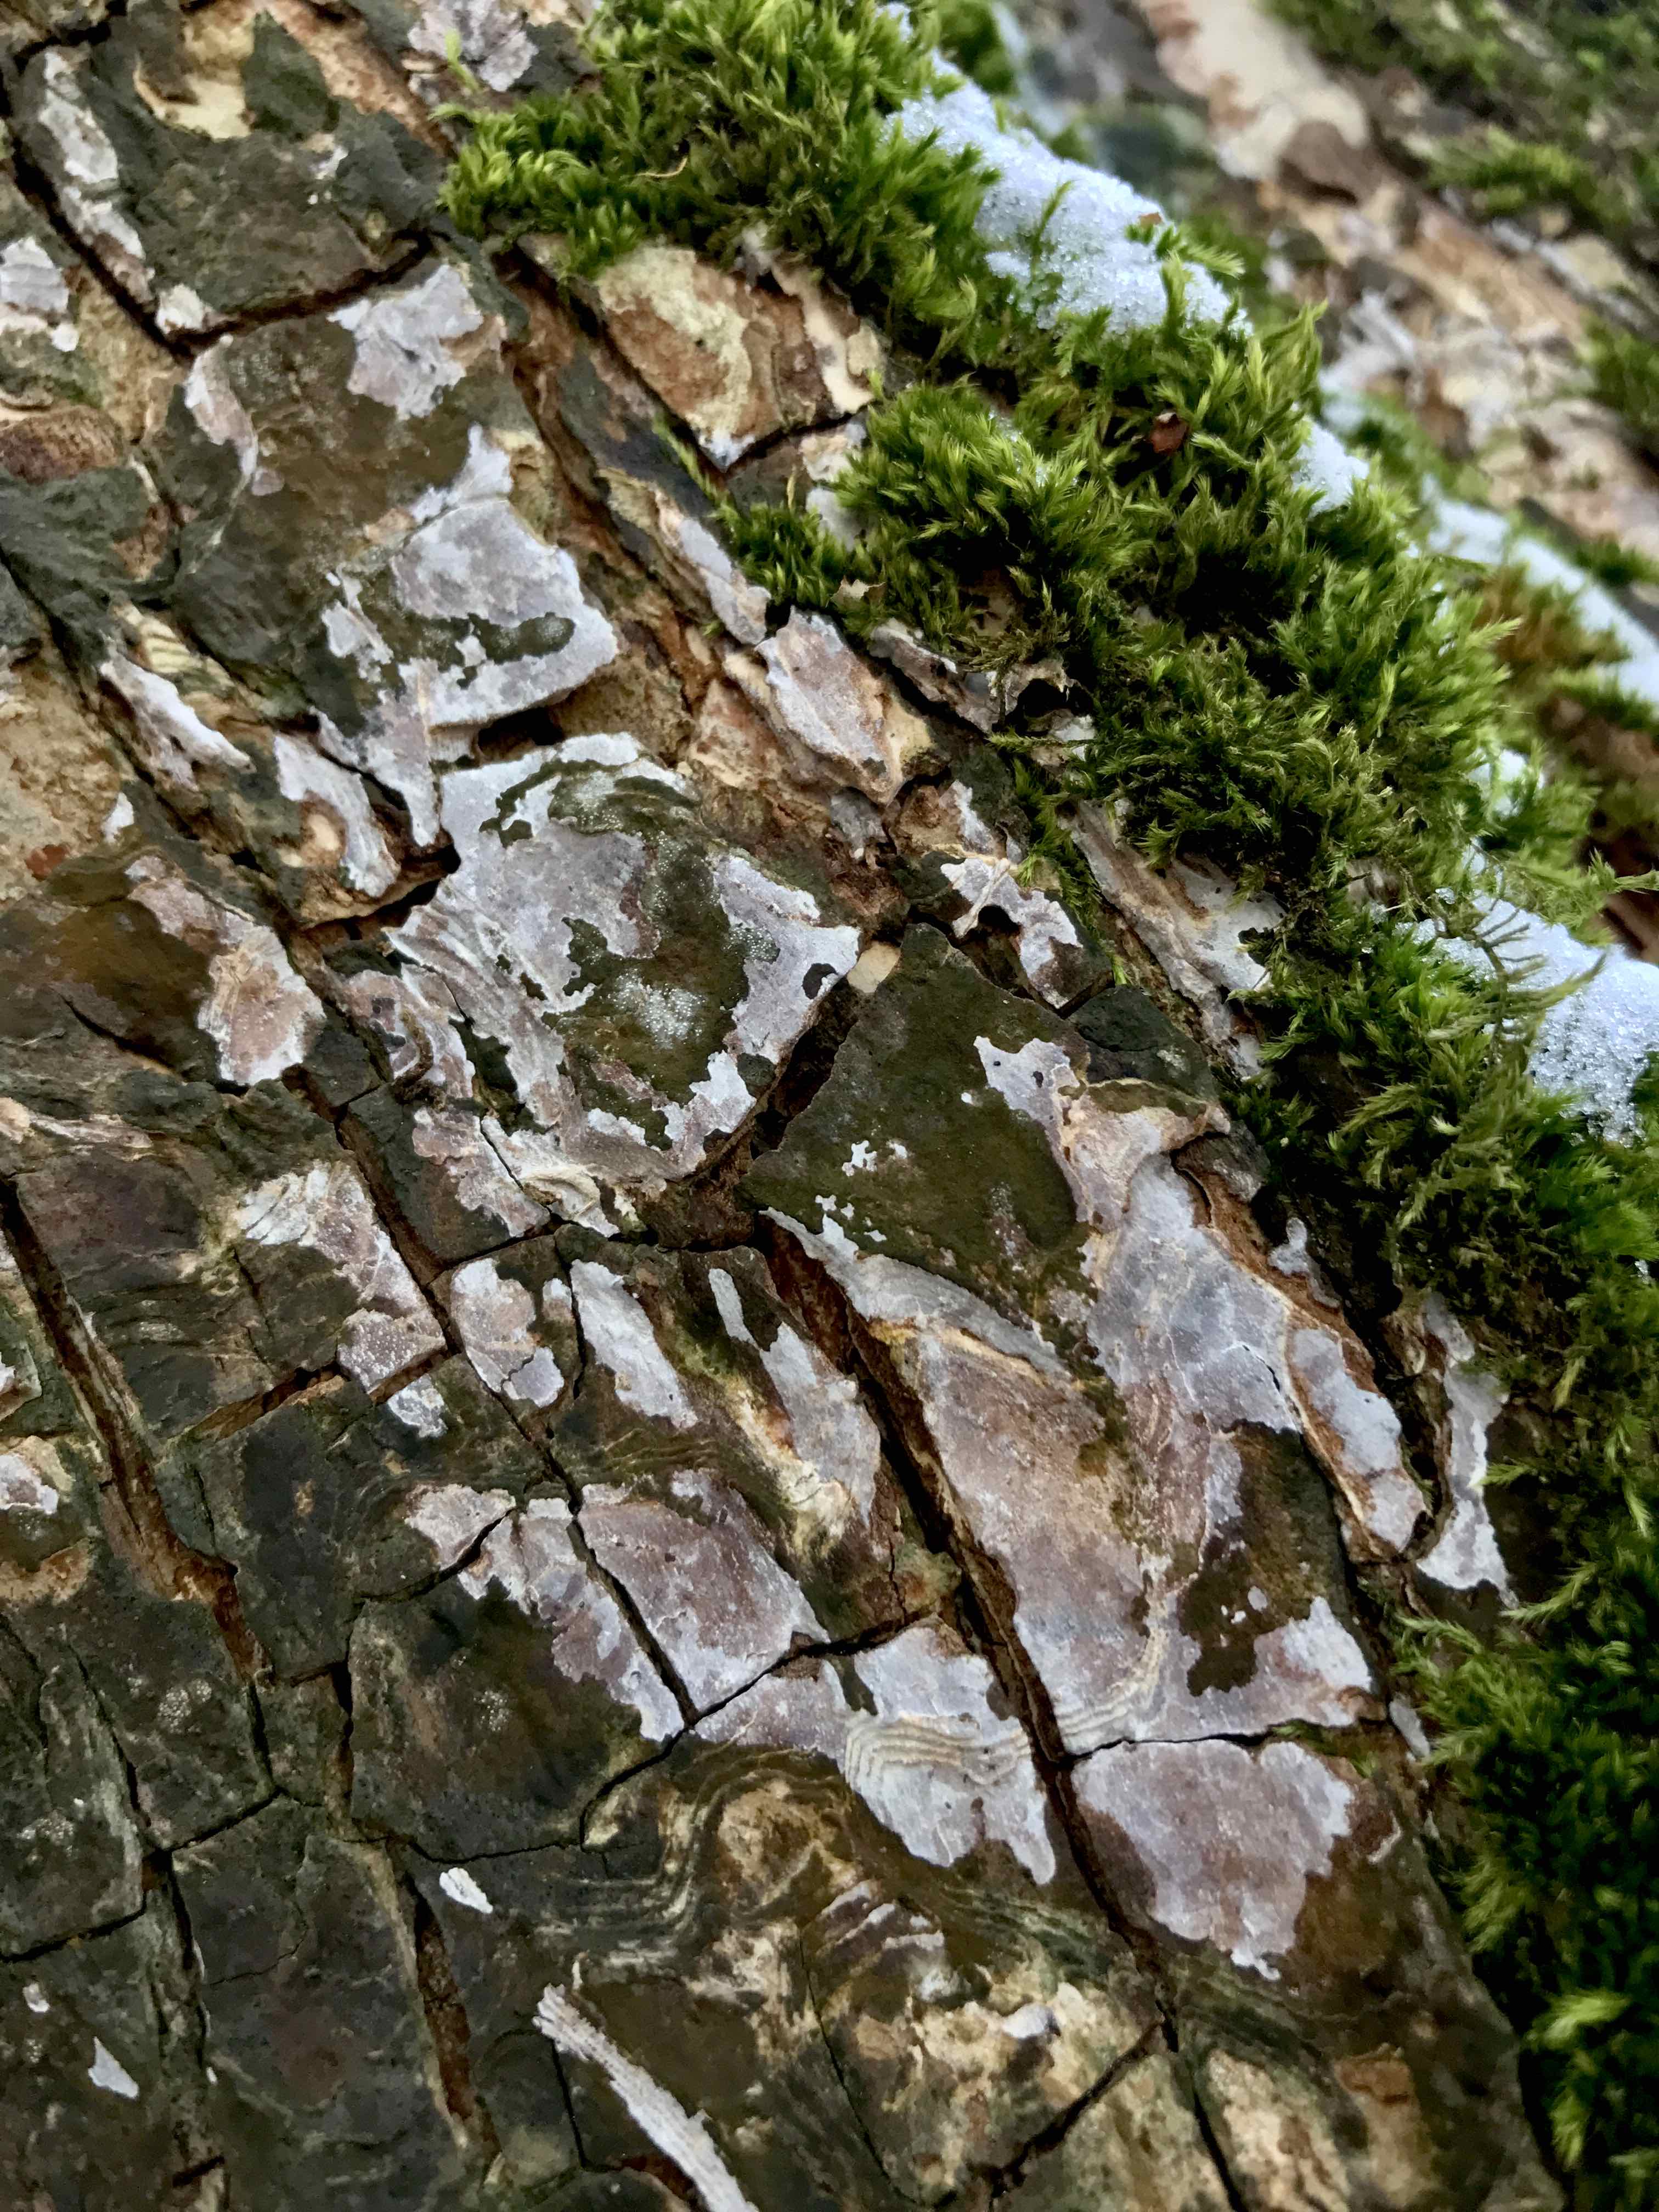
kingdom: Fungi
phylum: Basidiomycota
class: Agaricomycetes
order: Agaricales
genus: Dendrothele
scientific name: Dendrothele acerina
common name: navr-kalkplet
